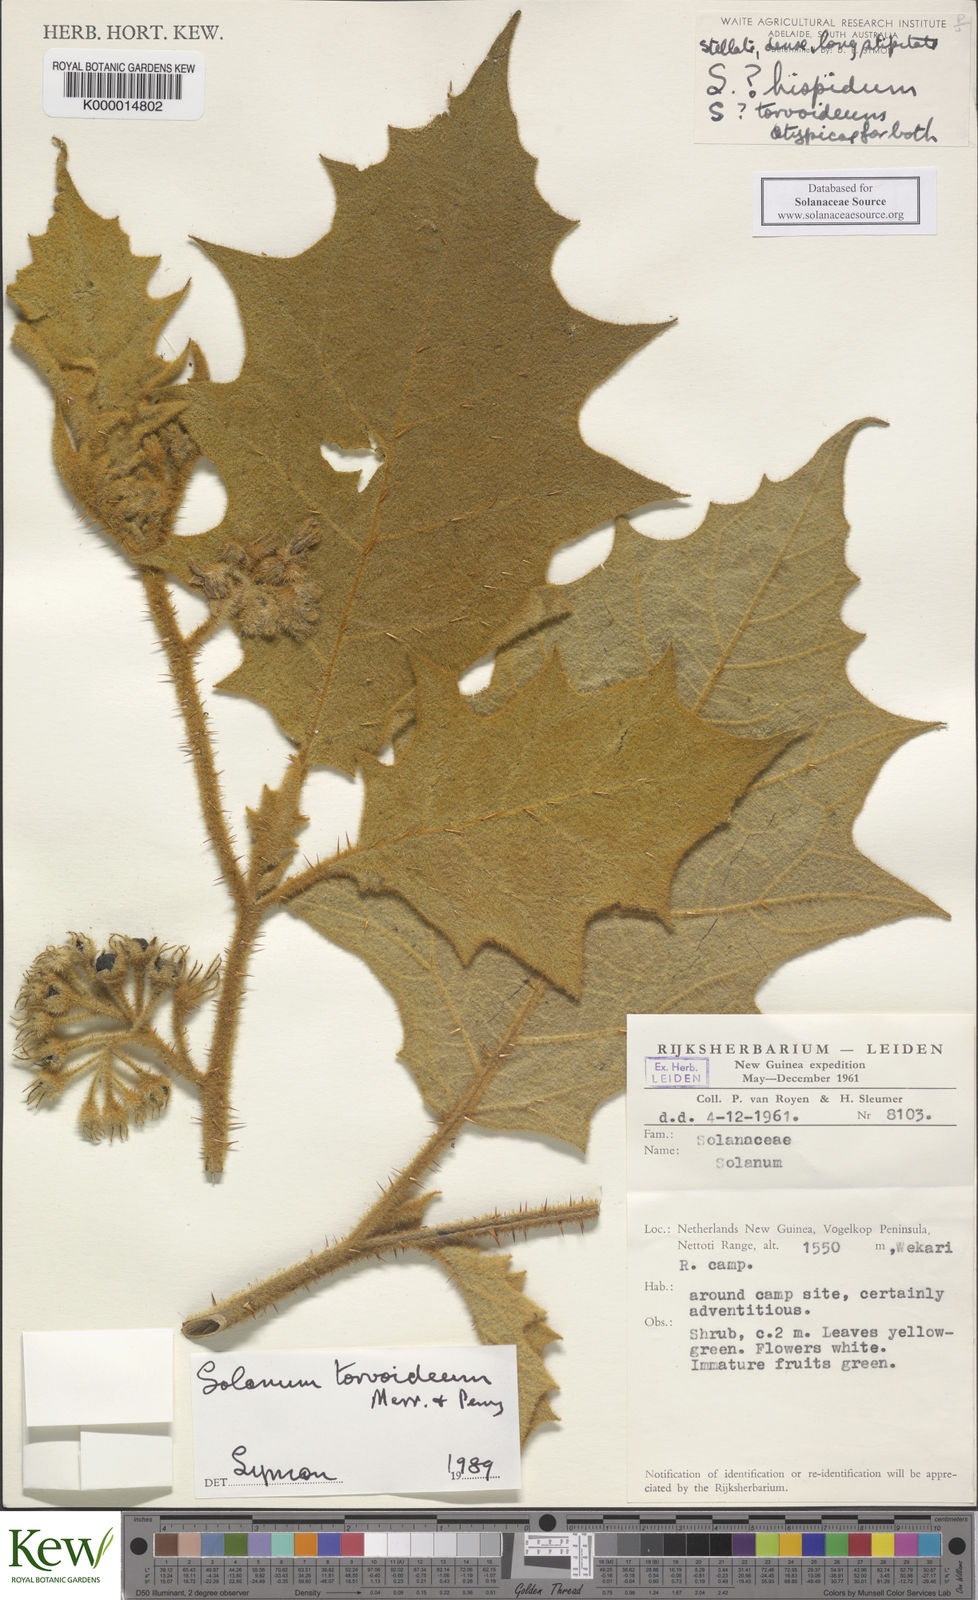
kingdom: Plantae
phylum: Tracheophyta
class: Magnoliopsida
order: Solanales
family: Solanaceae
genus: Solanum
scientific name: Solanum torvoideum
